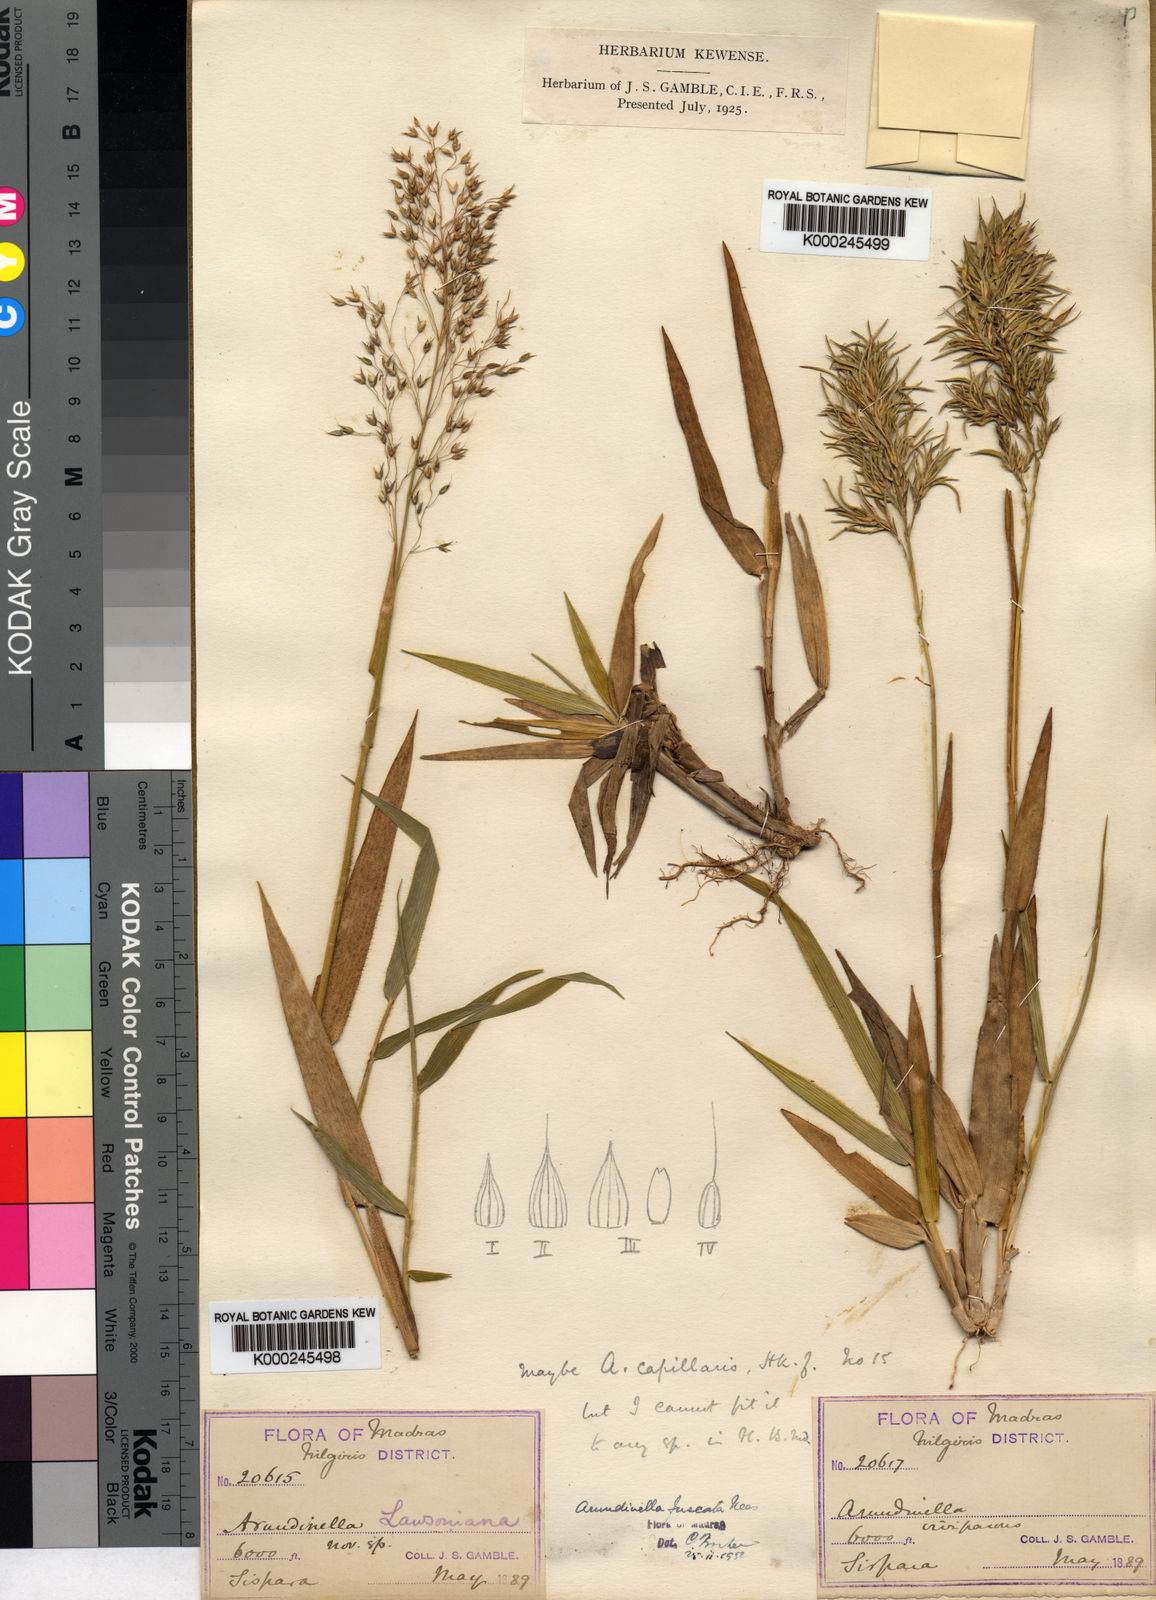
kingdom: Plantae
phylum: Tracheophyta
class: Liliopsida
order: Poales
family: Poaceae
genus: Arundinella
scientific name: Arundinella fuscata
